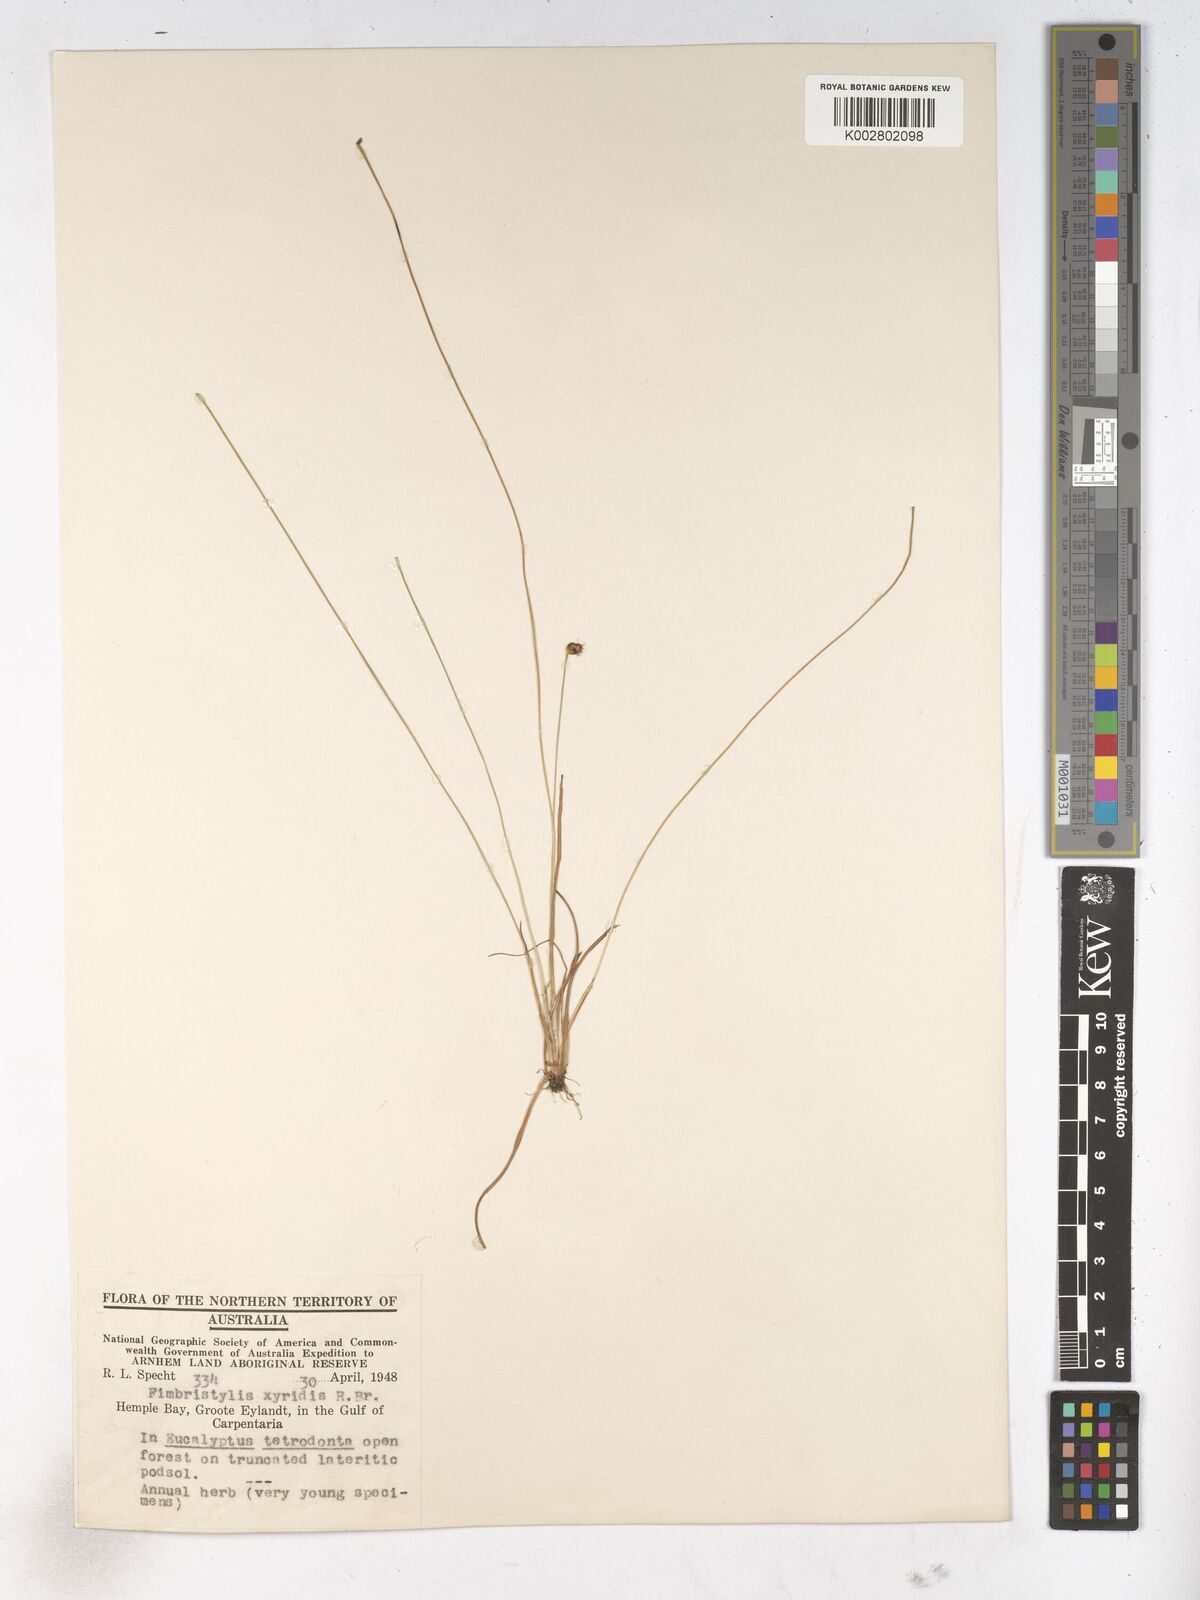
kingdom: Plantae
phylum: Tracheophyta
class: Liliopsida
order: Poales
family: Cyperaceae
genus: Fimbristylis
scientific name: Fimbristylis xyridis
